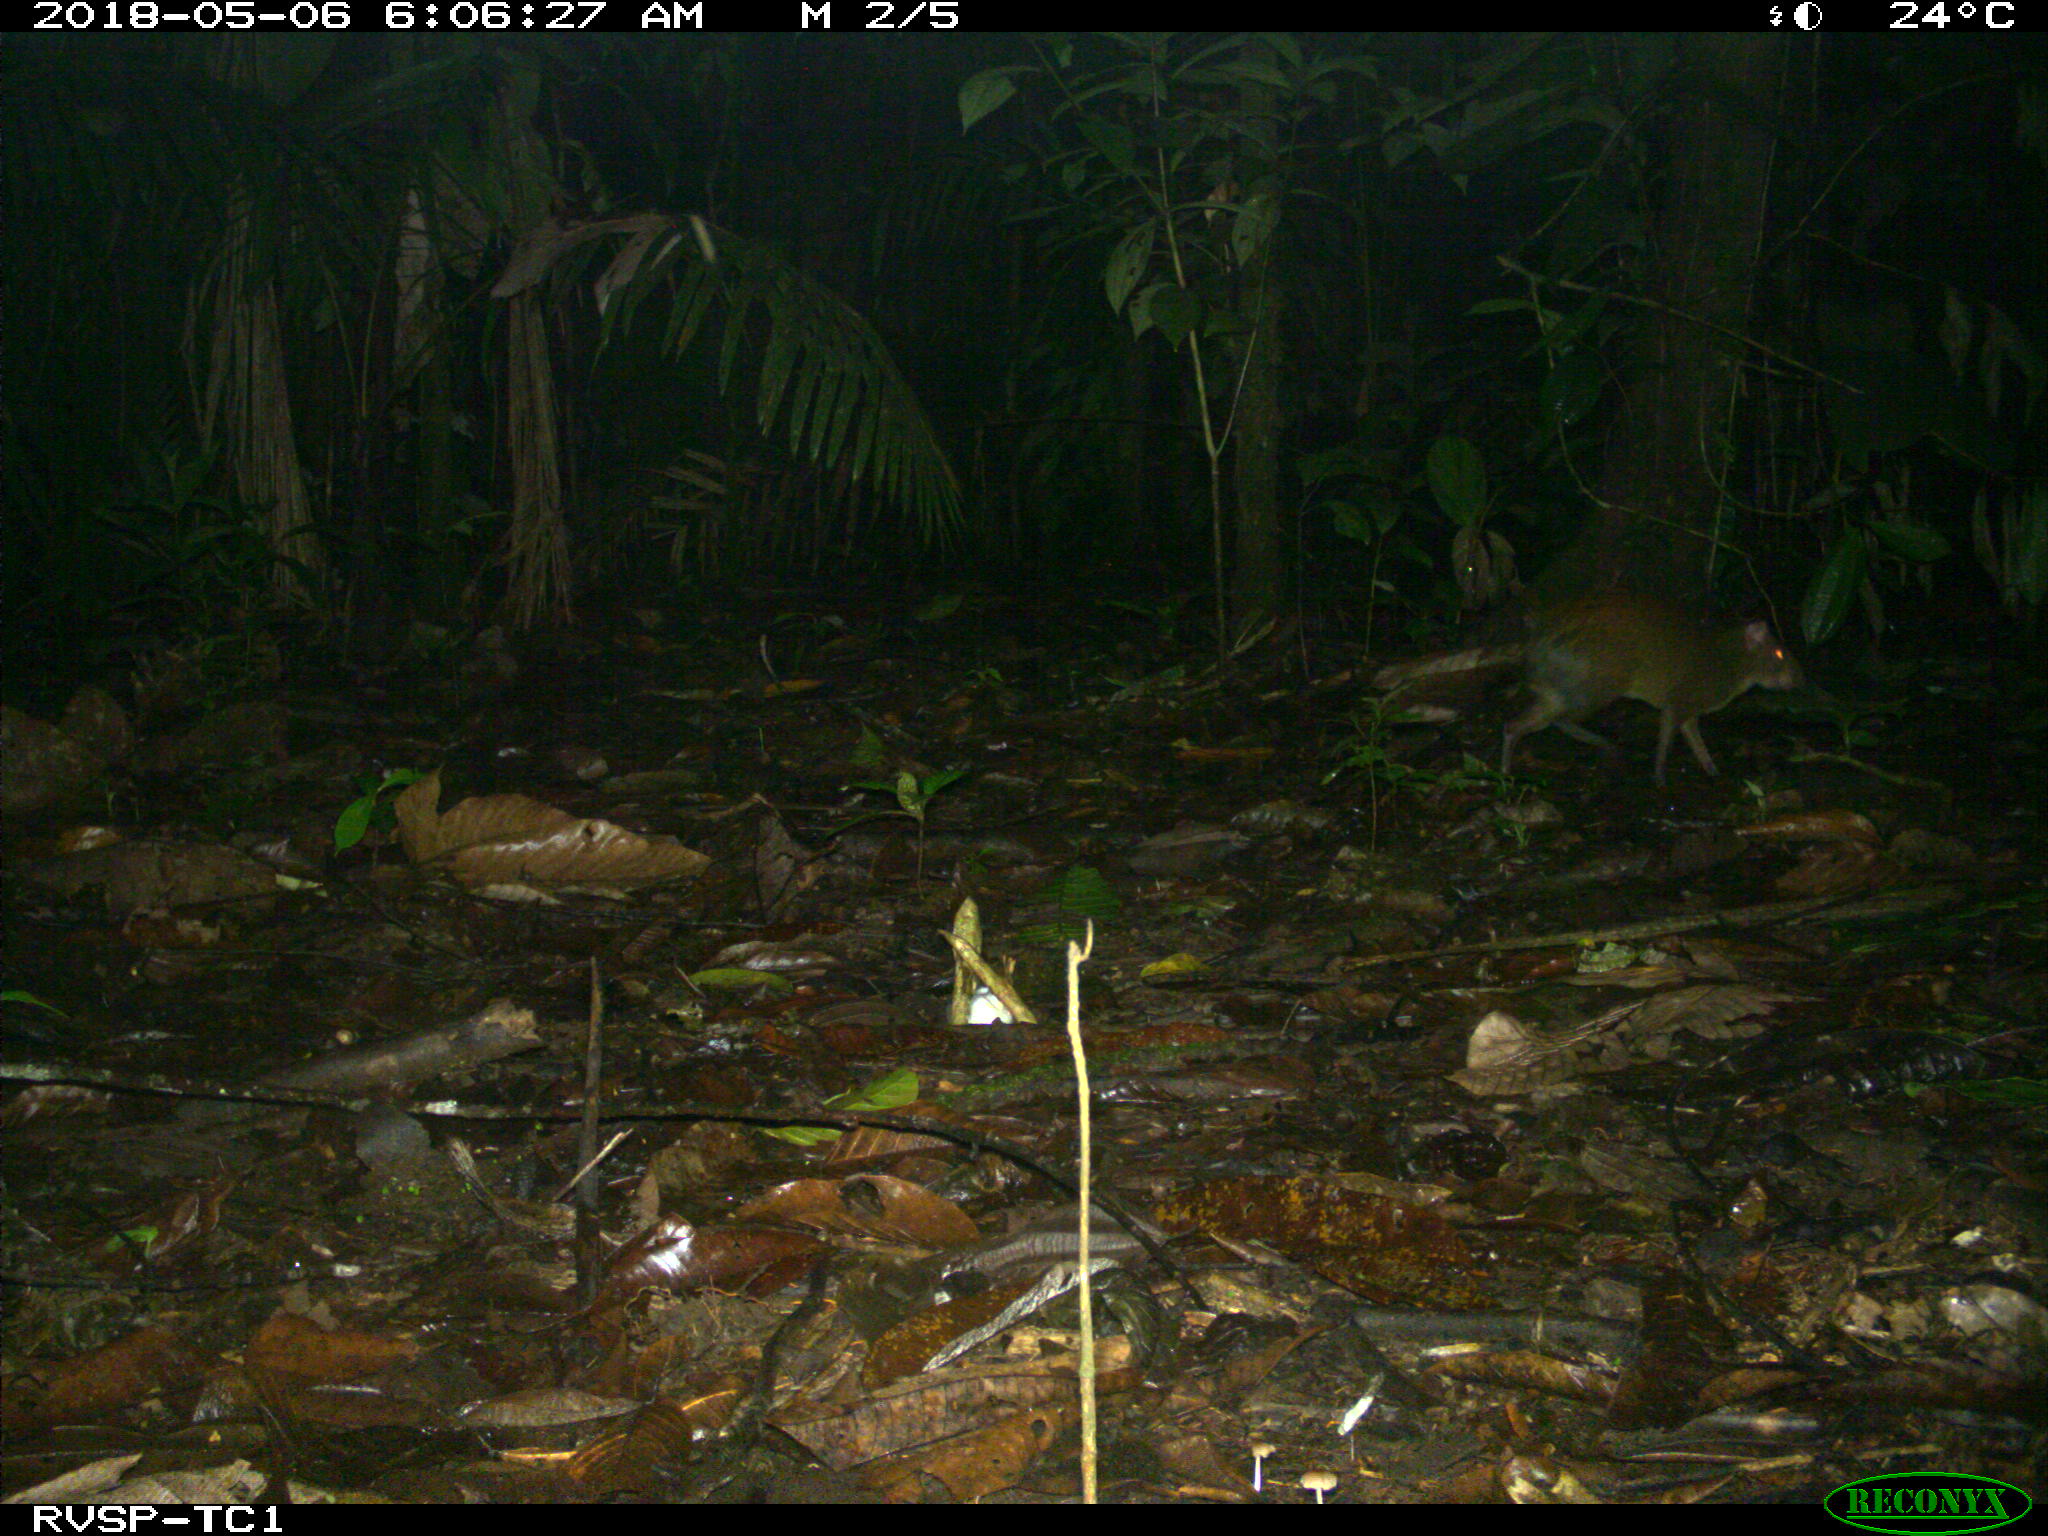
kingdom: Animalia
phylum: Chordata
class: Mammalia
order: Rodentia
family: Dasyproctidae
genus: Dasyprocta
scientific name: Dasyprocta punctata
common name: Central american agouti
